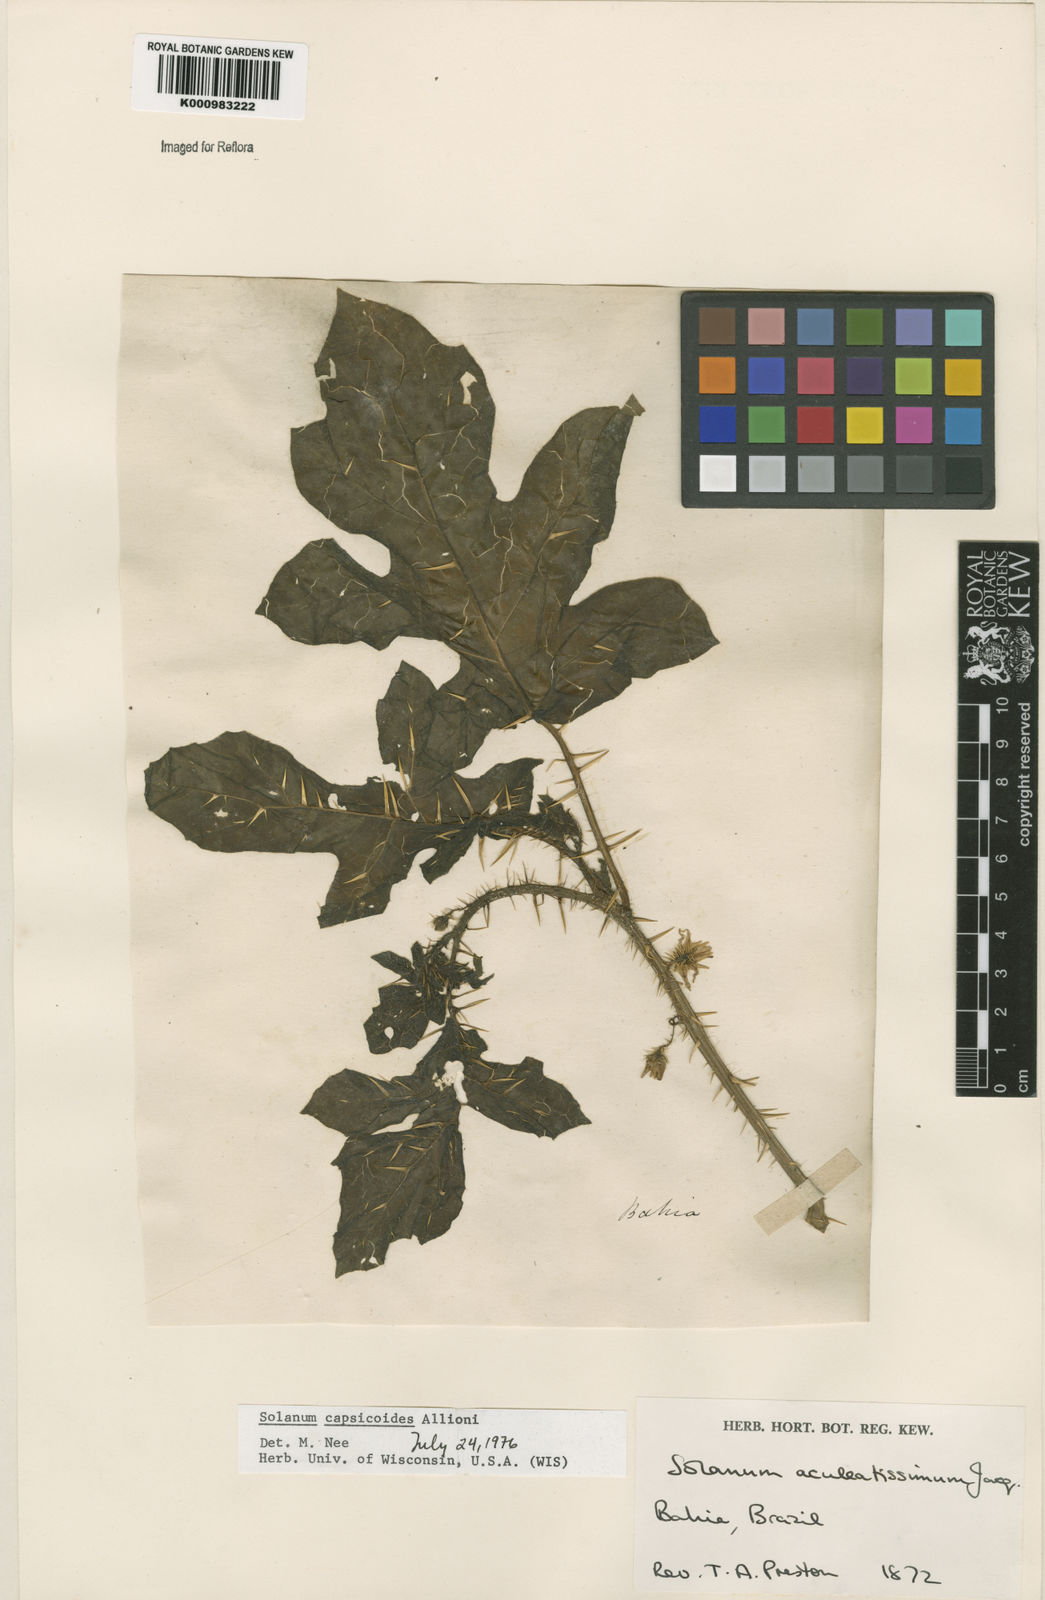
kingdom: Plantae
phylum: Tracheophyta
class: Magnoliopsida
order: Solanales
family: Solanaceae
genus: Solanum
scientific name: Solanum capsicoides
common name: Cockroach berry
